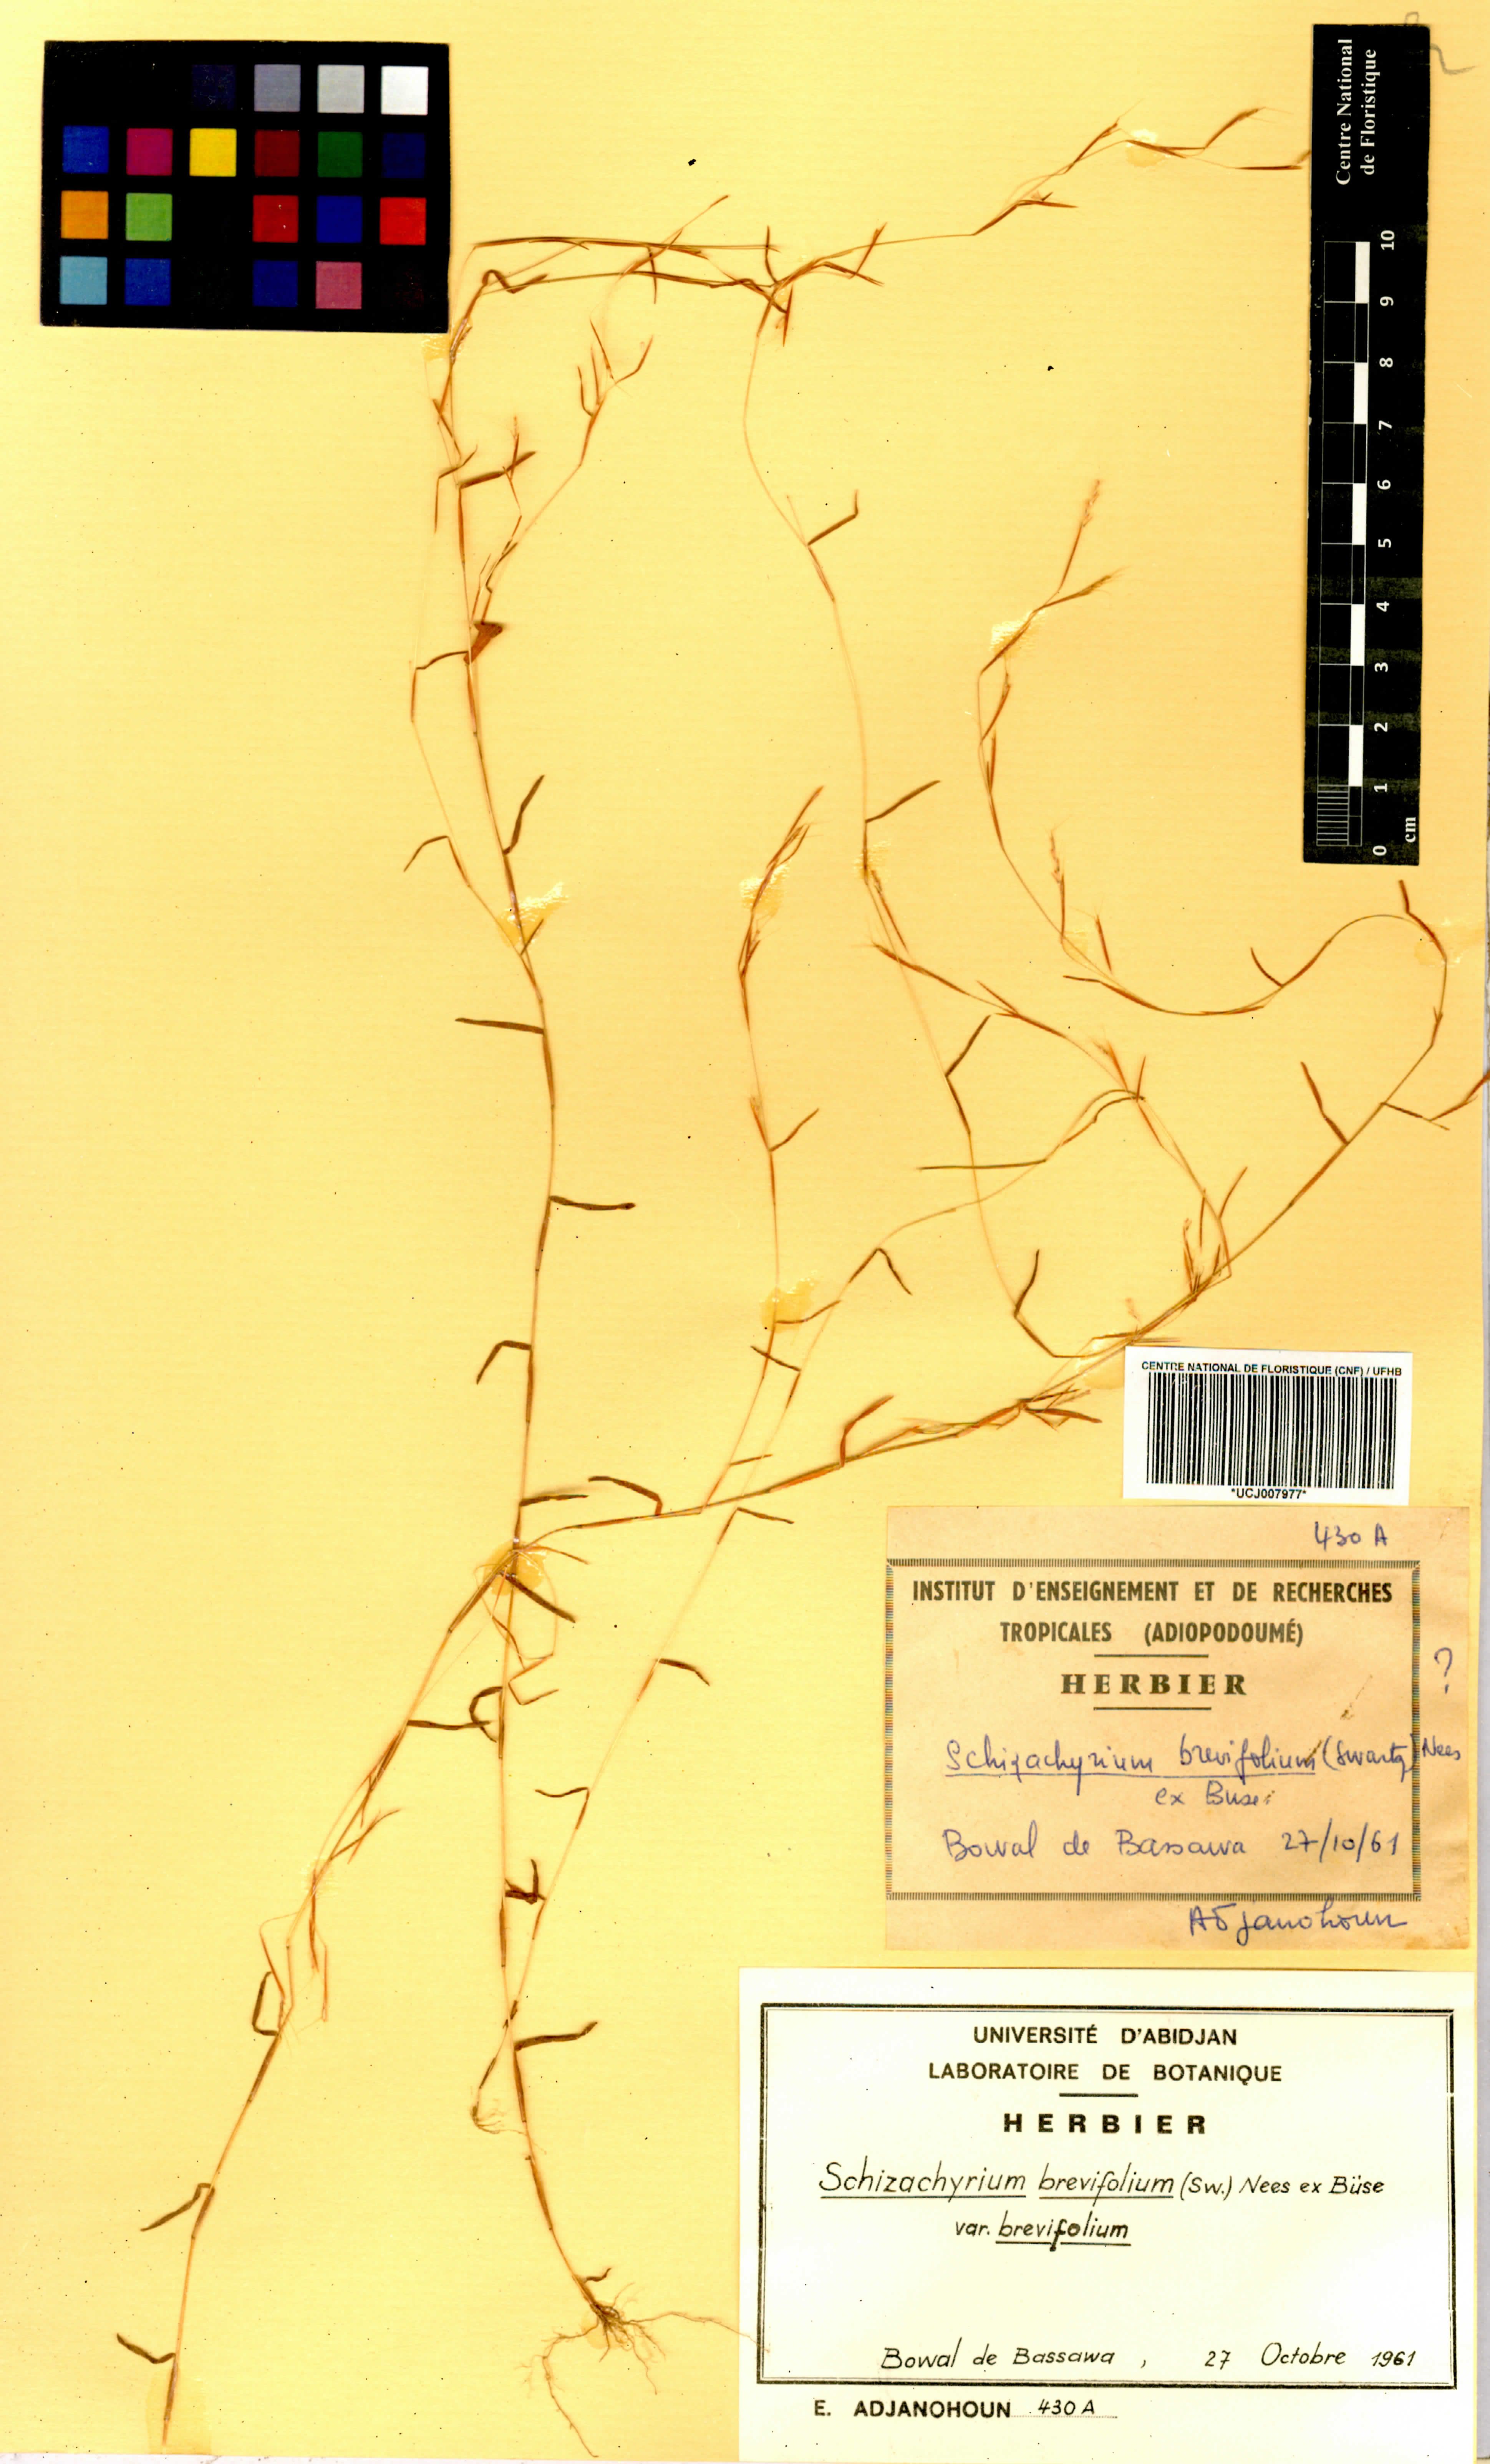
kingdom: Plantae
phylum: Tracheophyta
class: Liliopsida
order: Poales
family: Poaceae
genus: Schizachyrium
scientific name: Schizachyrium brevifolium
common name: Serillo dulce
